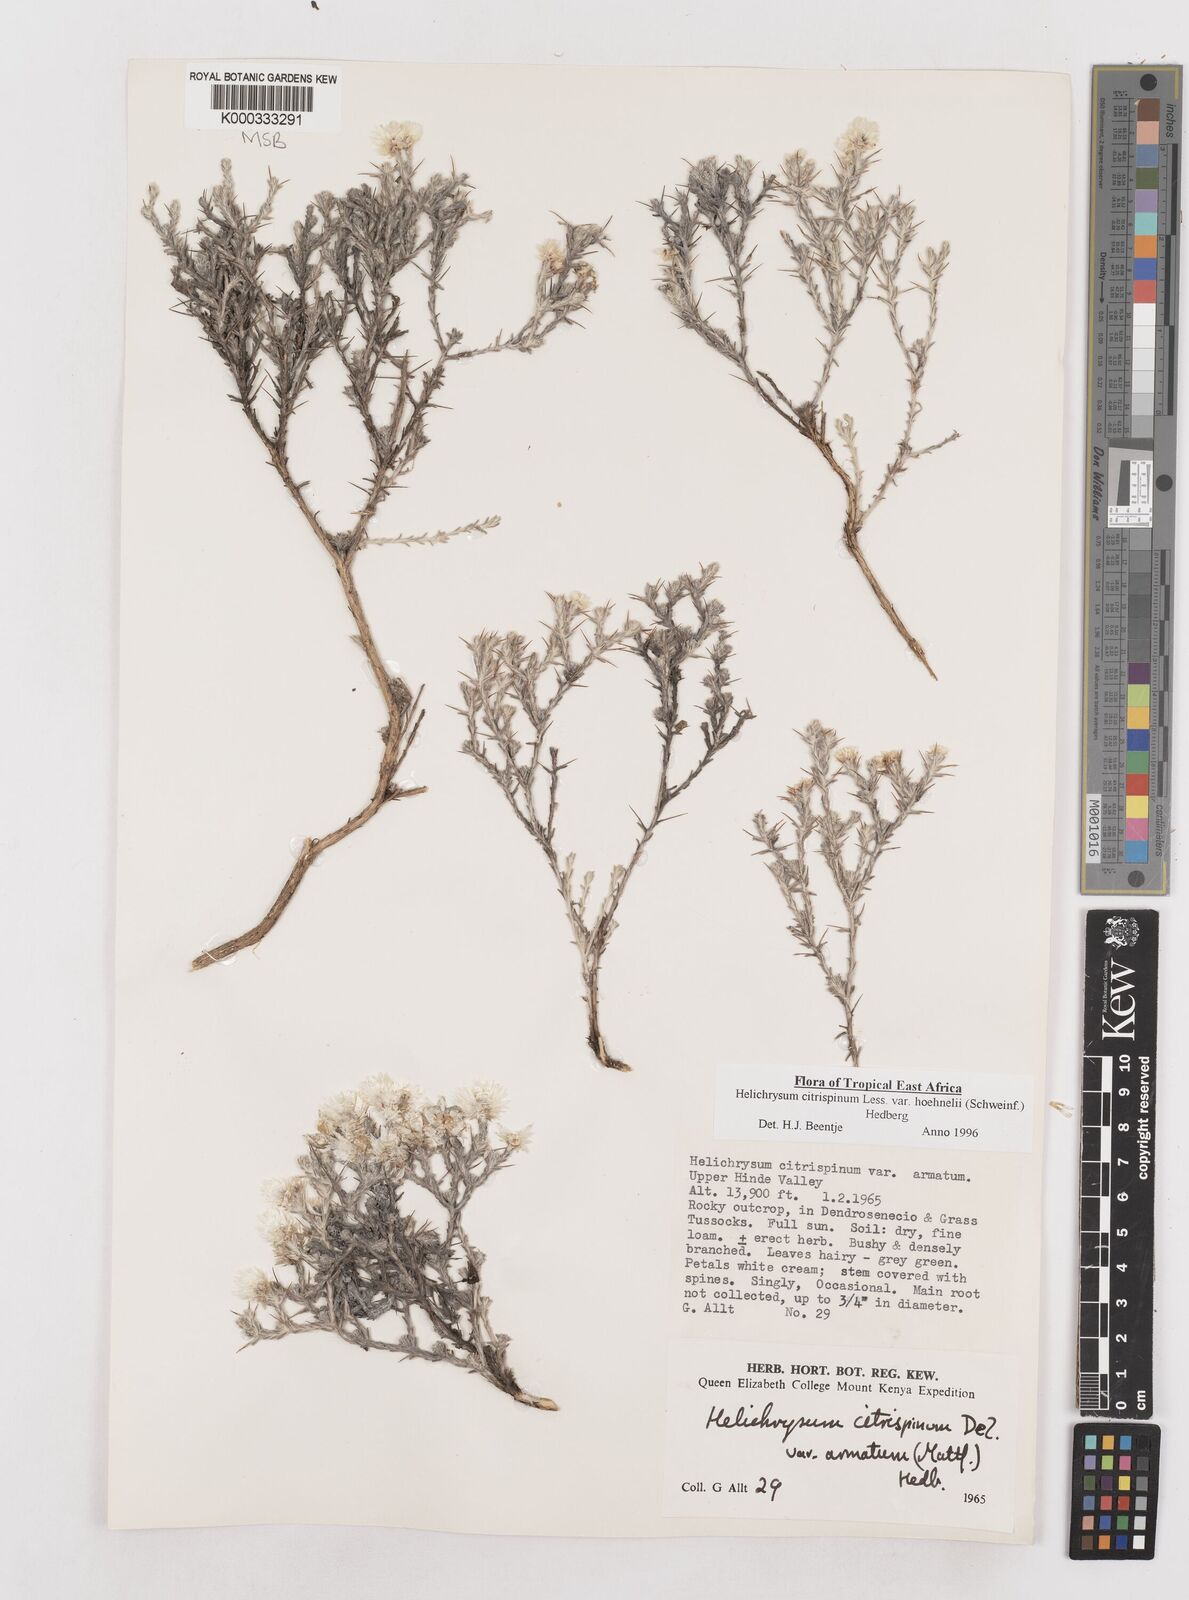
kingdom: Plantae
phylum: Tracheophyta
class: Magnoliopsida
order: Asterales
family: Asteraceae
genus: Helichrysum
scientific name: Helichrysum citrispinum
